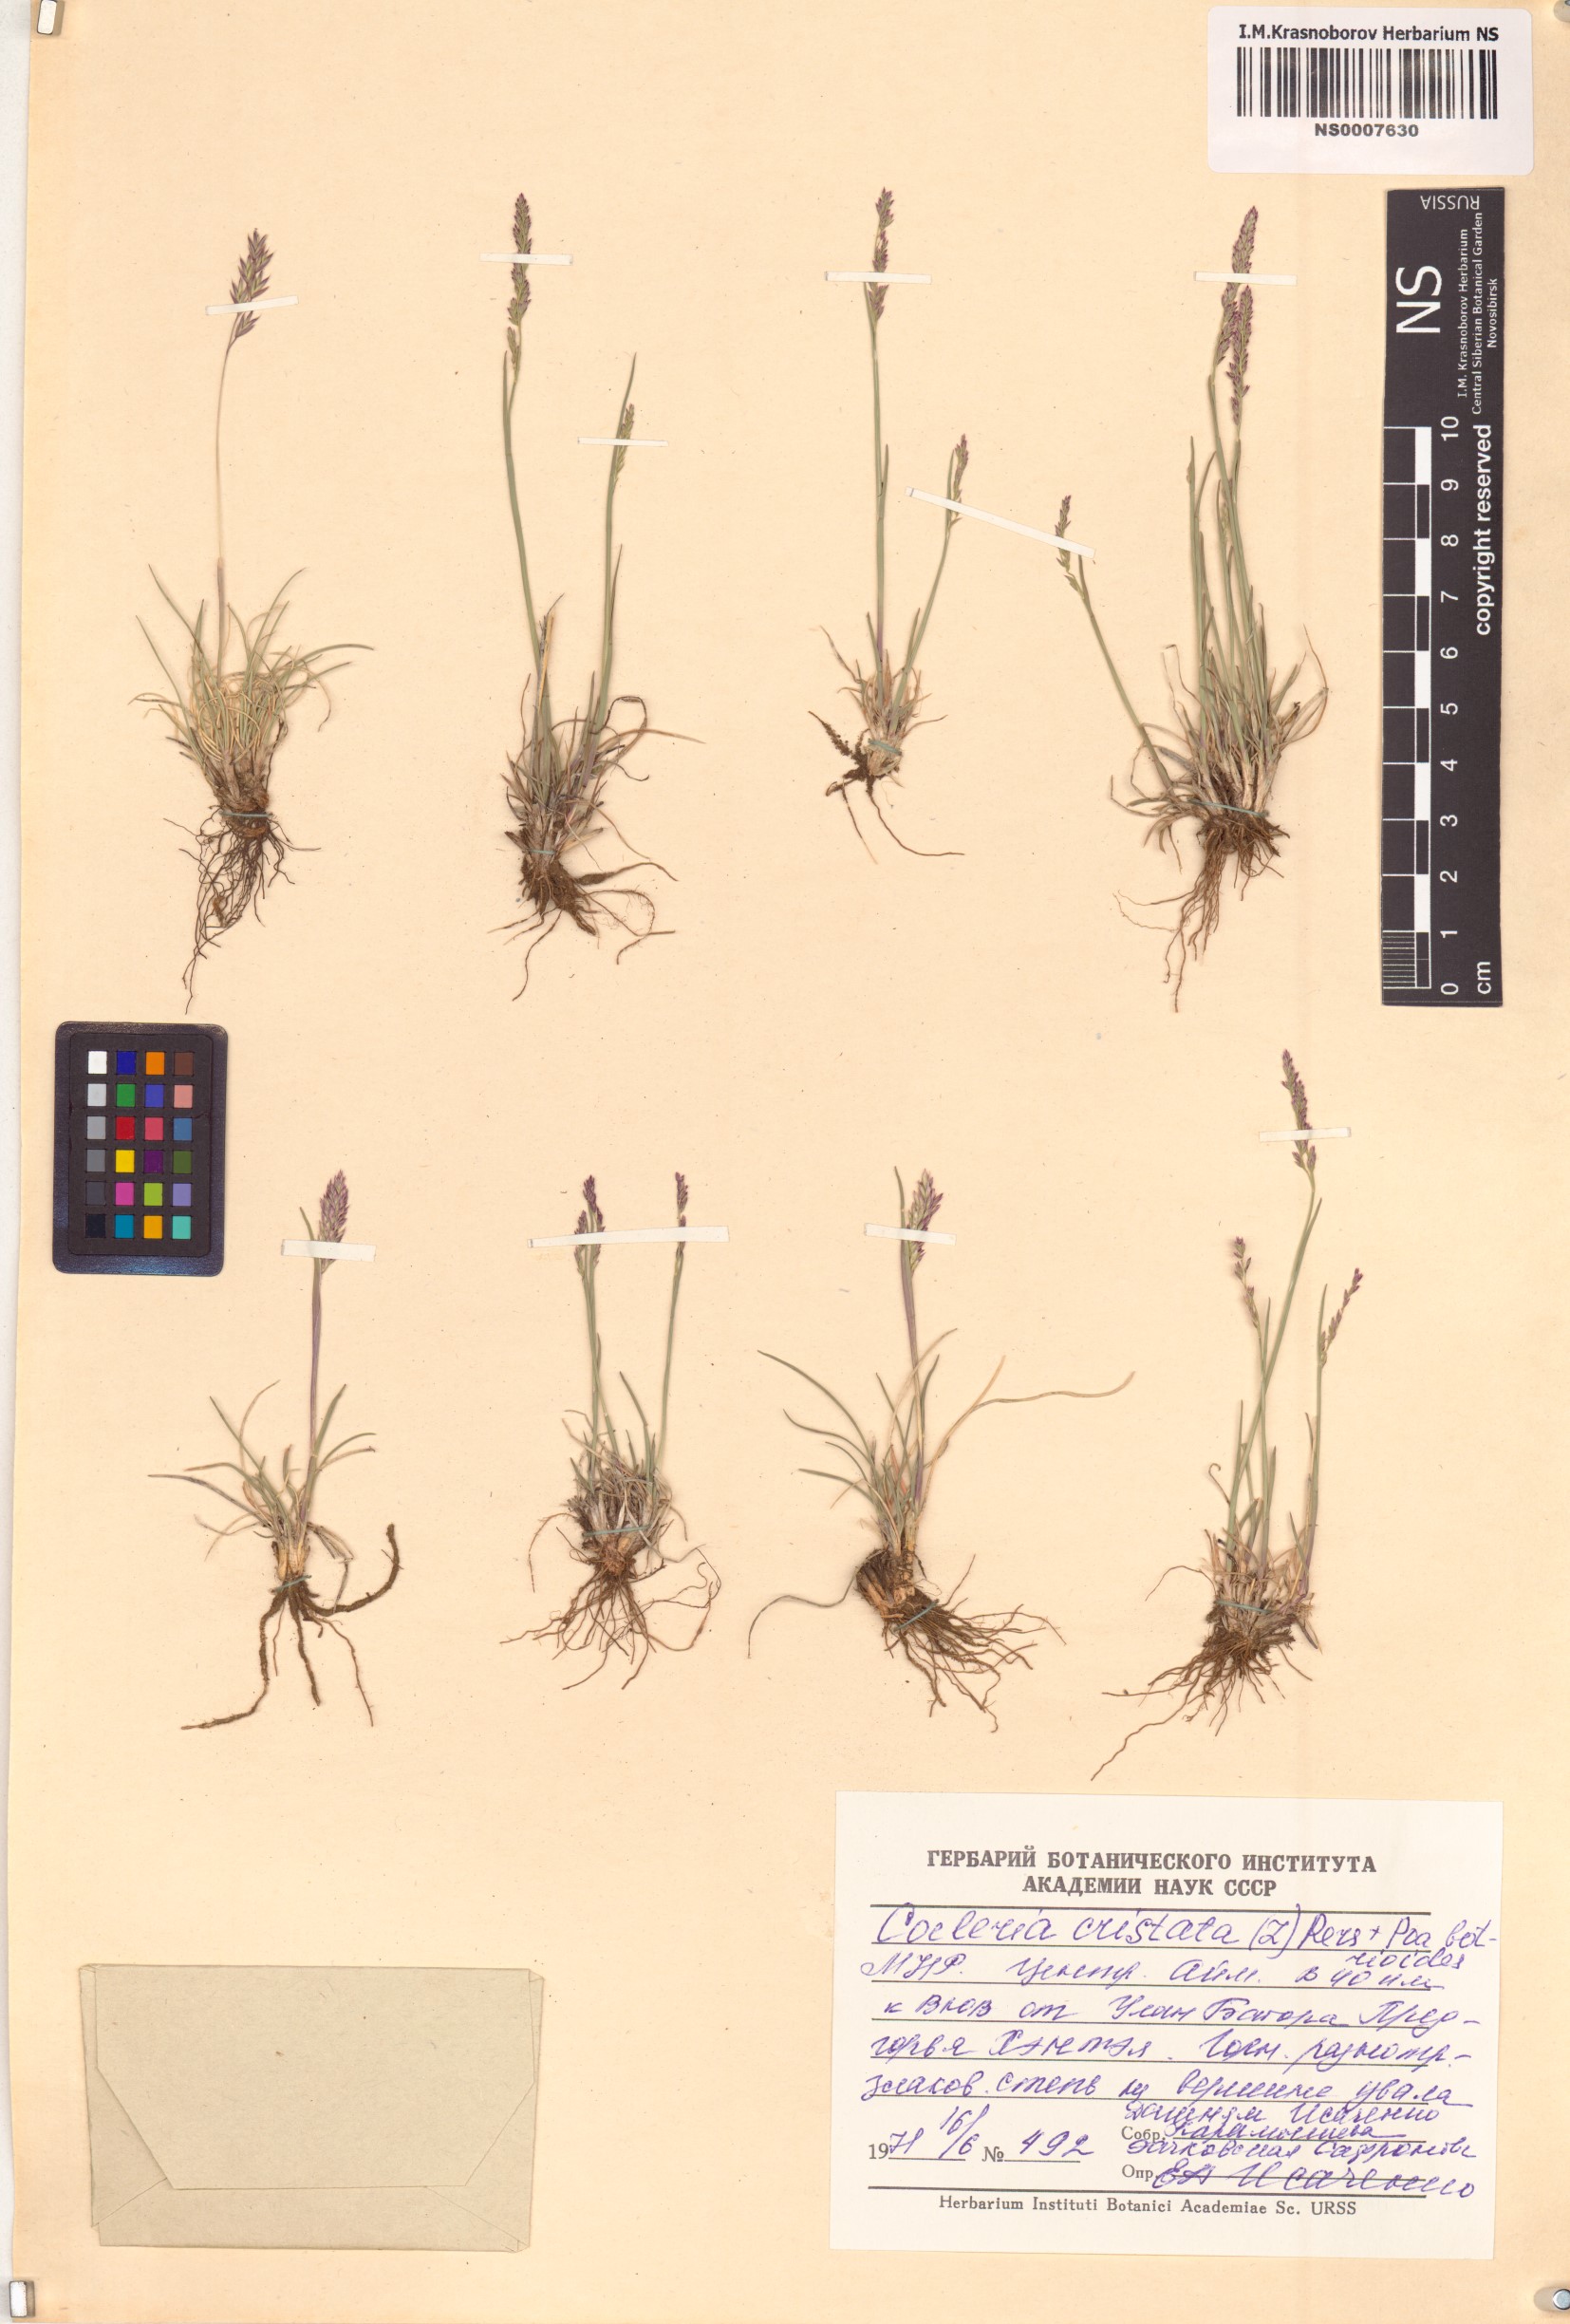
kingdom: Plantae
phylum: Tracheophyta
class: Liliopsida
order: Poales
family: Poaceae
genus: Rostraria
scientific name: Rostraria cristata
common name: Mediterranean hair-grass
